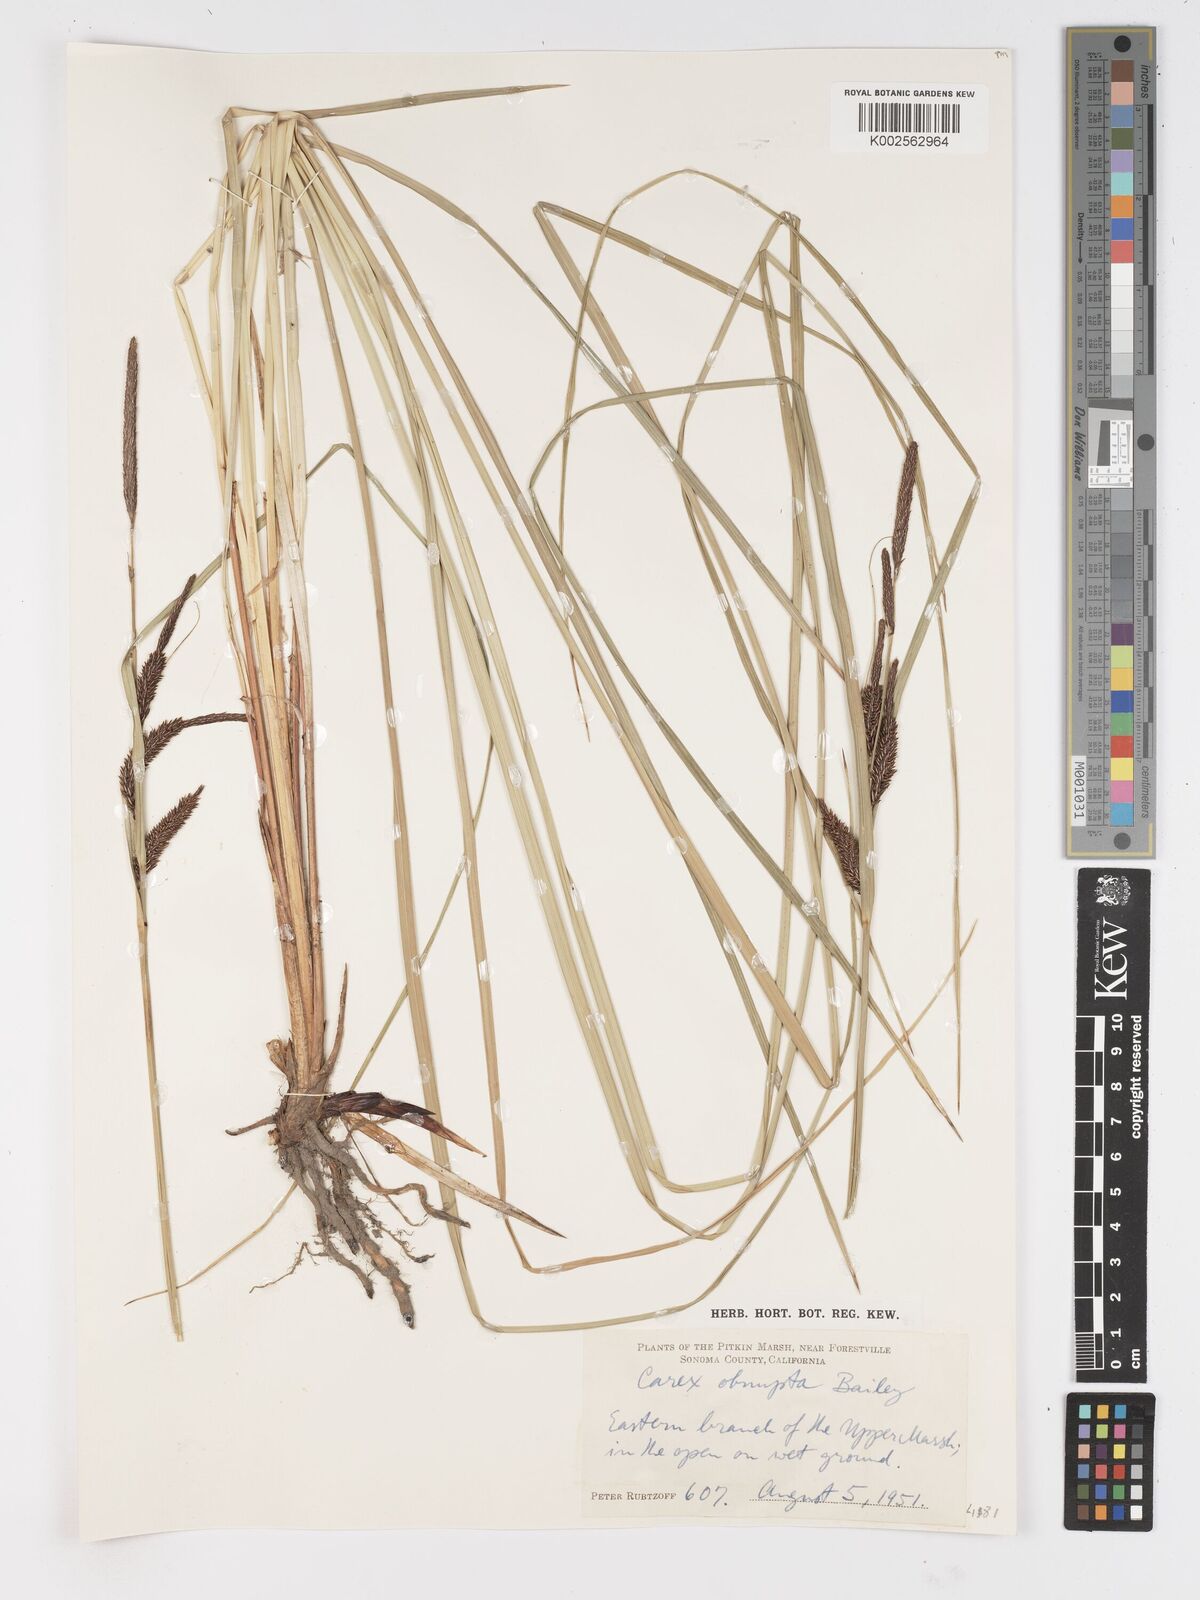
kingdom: Plantae
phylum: Tracheophyta
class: Liliopsida
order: Poales
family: Cyperaceae
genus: Carex
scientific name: Carex obnupta
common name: Slough sedge
